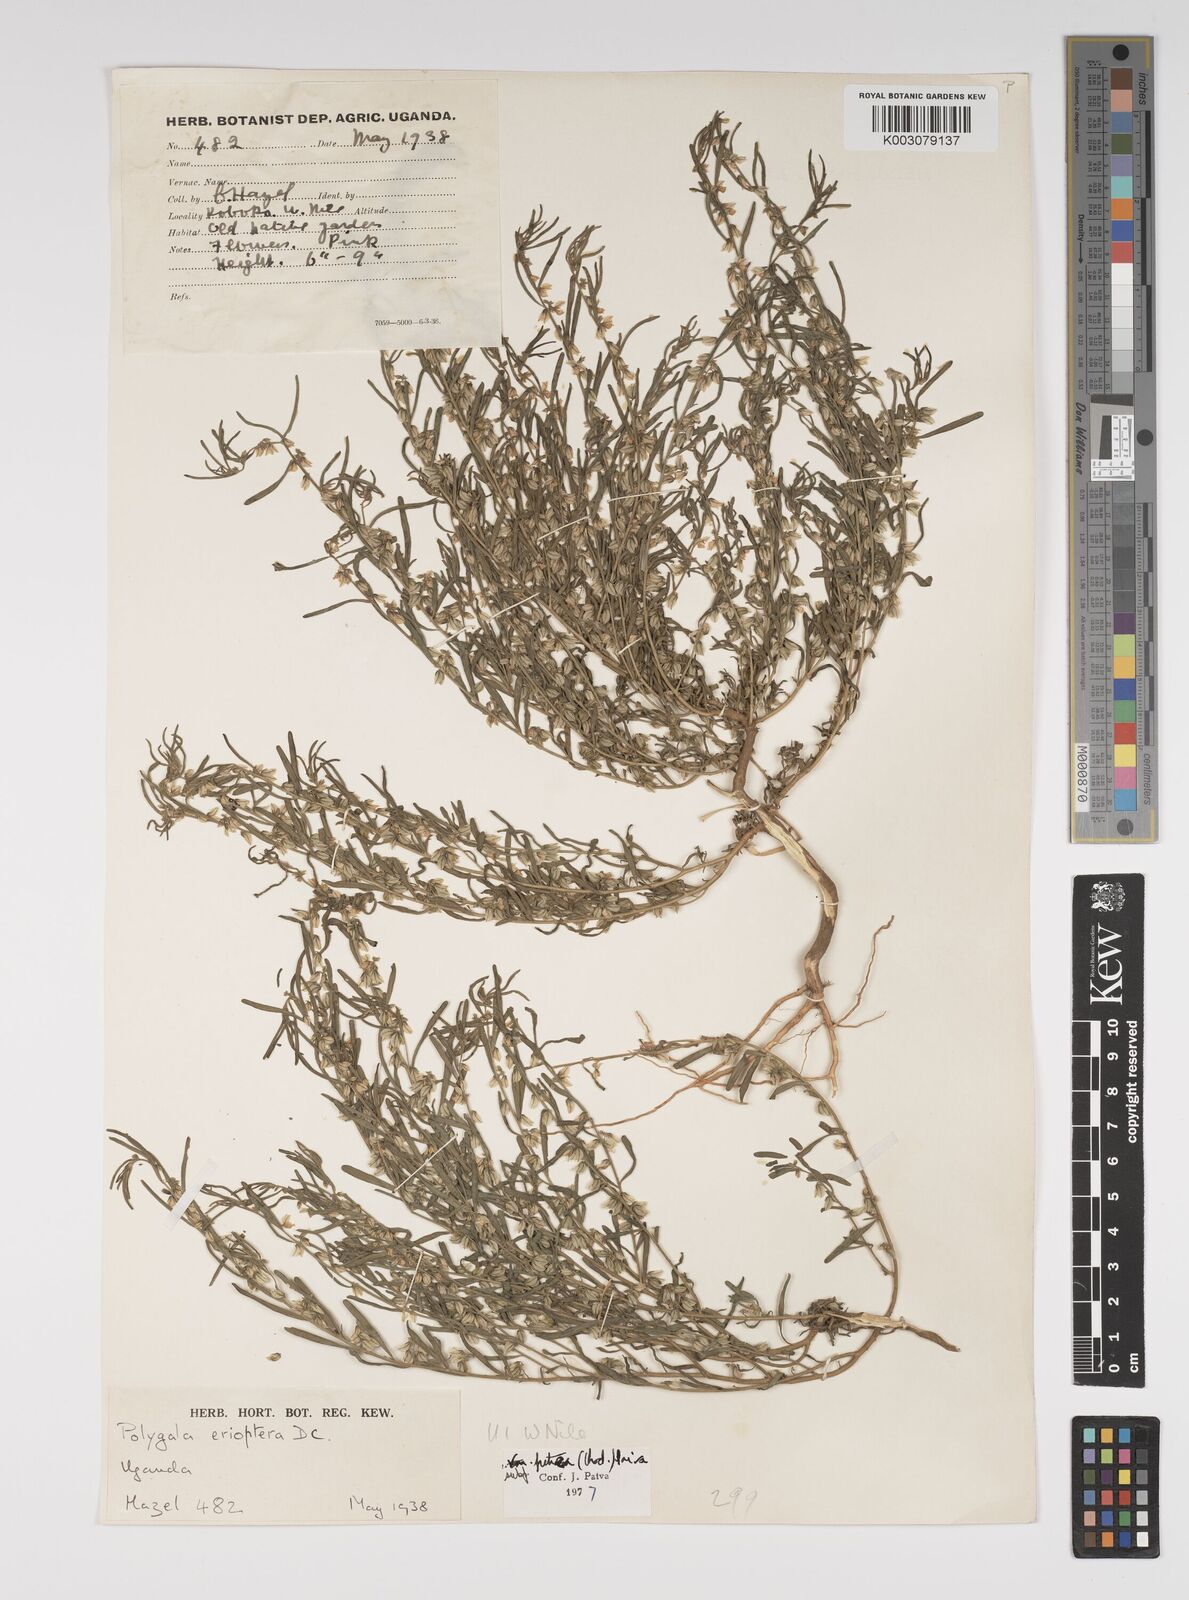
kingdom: Plantae
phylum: Tracheophyta
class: Magnoliopsida
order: Fabales
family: Polygalaceae
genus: Polygala
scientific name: Polygala erioptera
